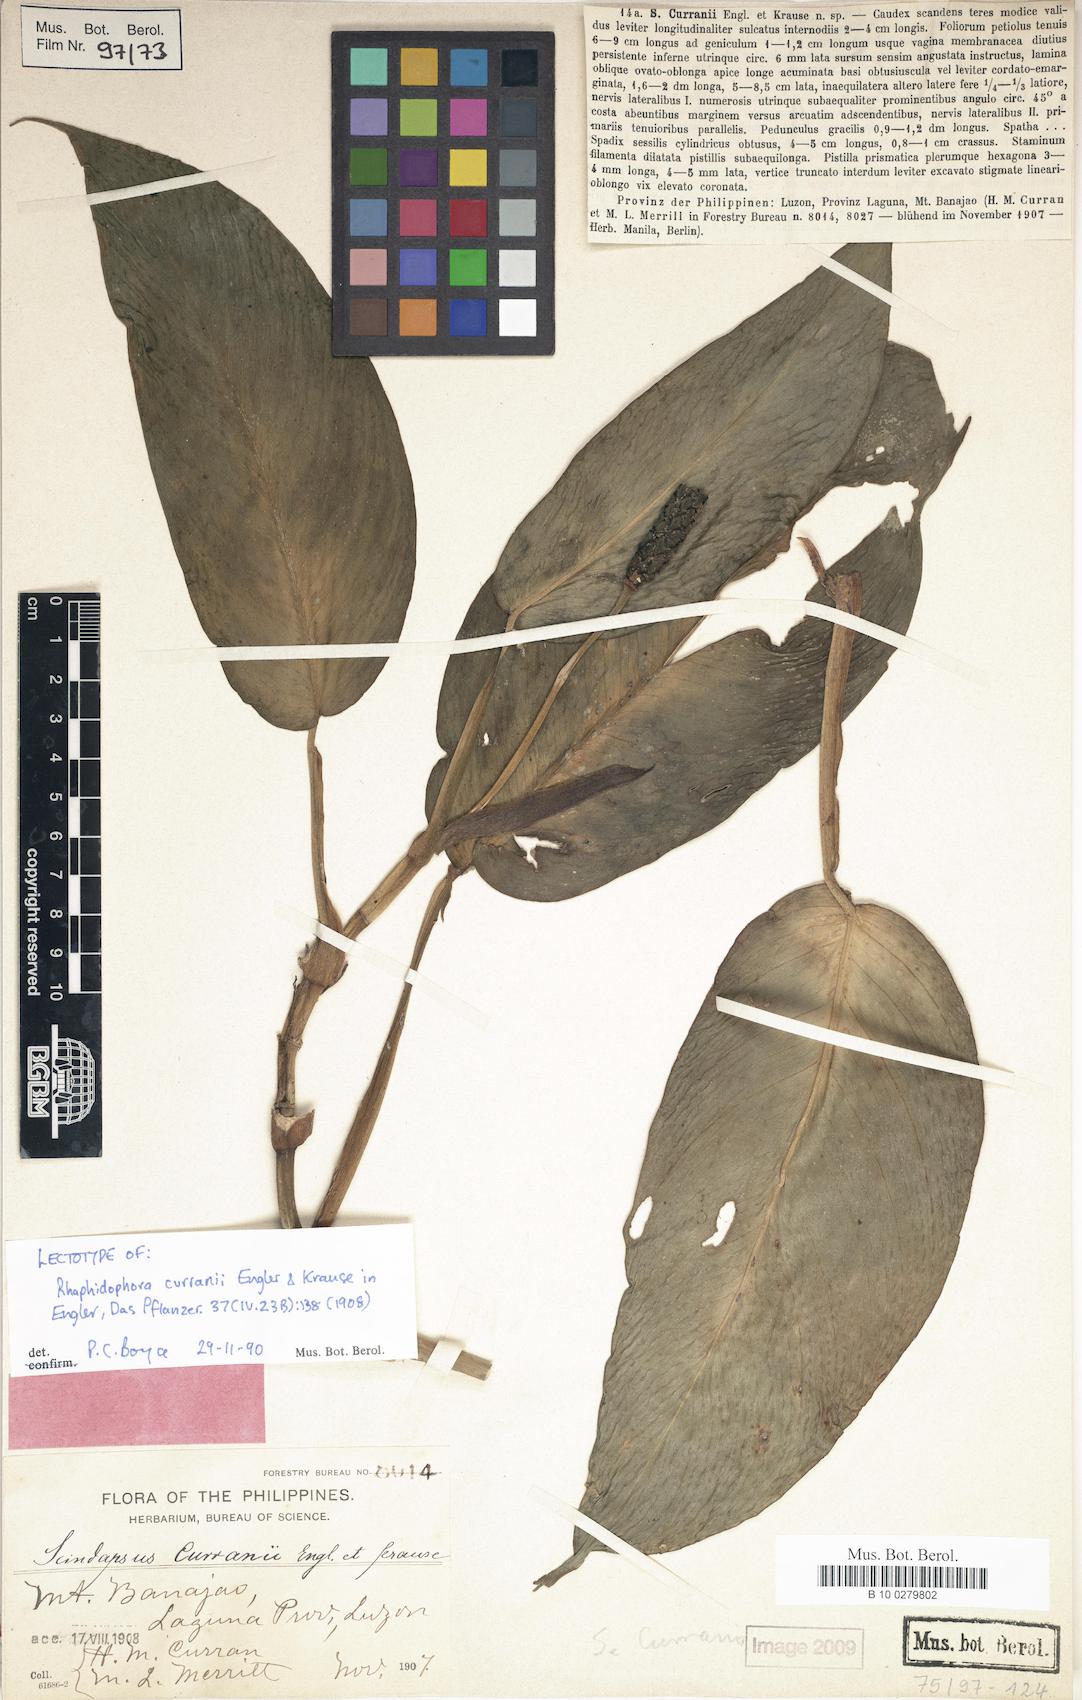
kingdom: Plantae
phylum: Tracheophyta
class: Liliopsida
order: Alismatales
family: Araceae
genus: Rhaphidophora
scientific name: Rhaphidophora
